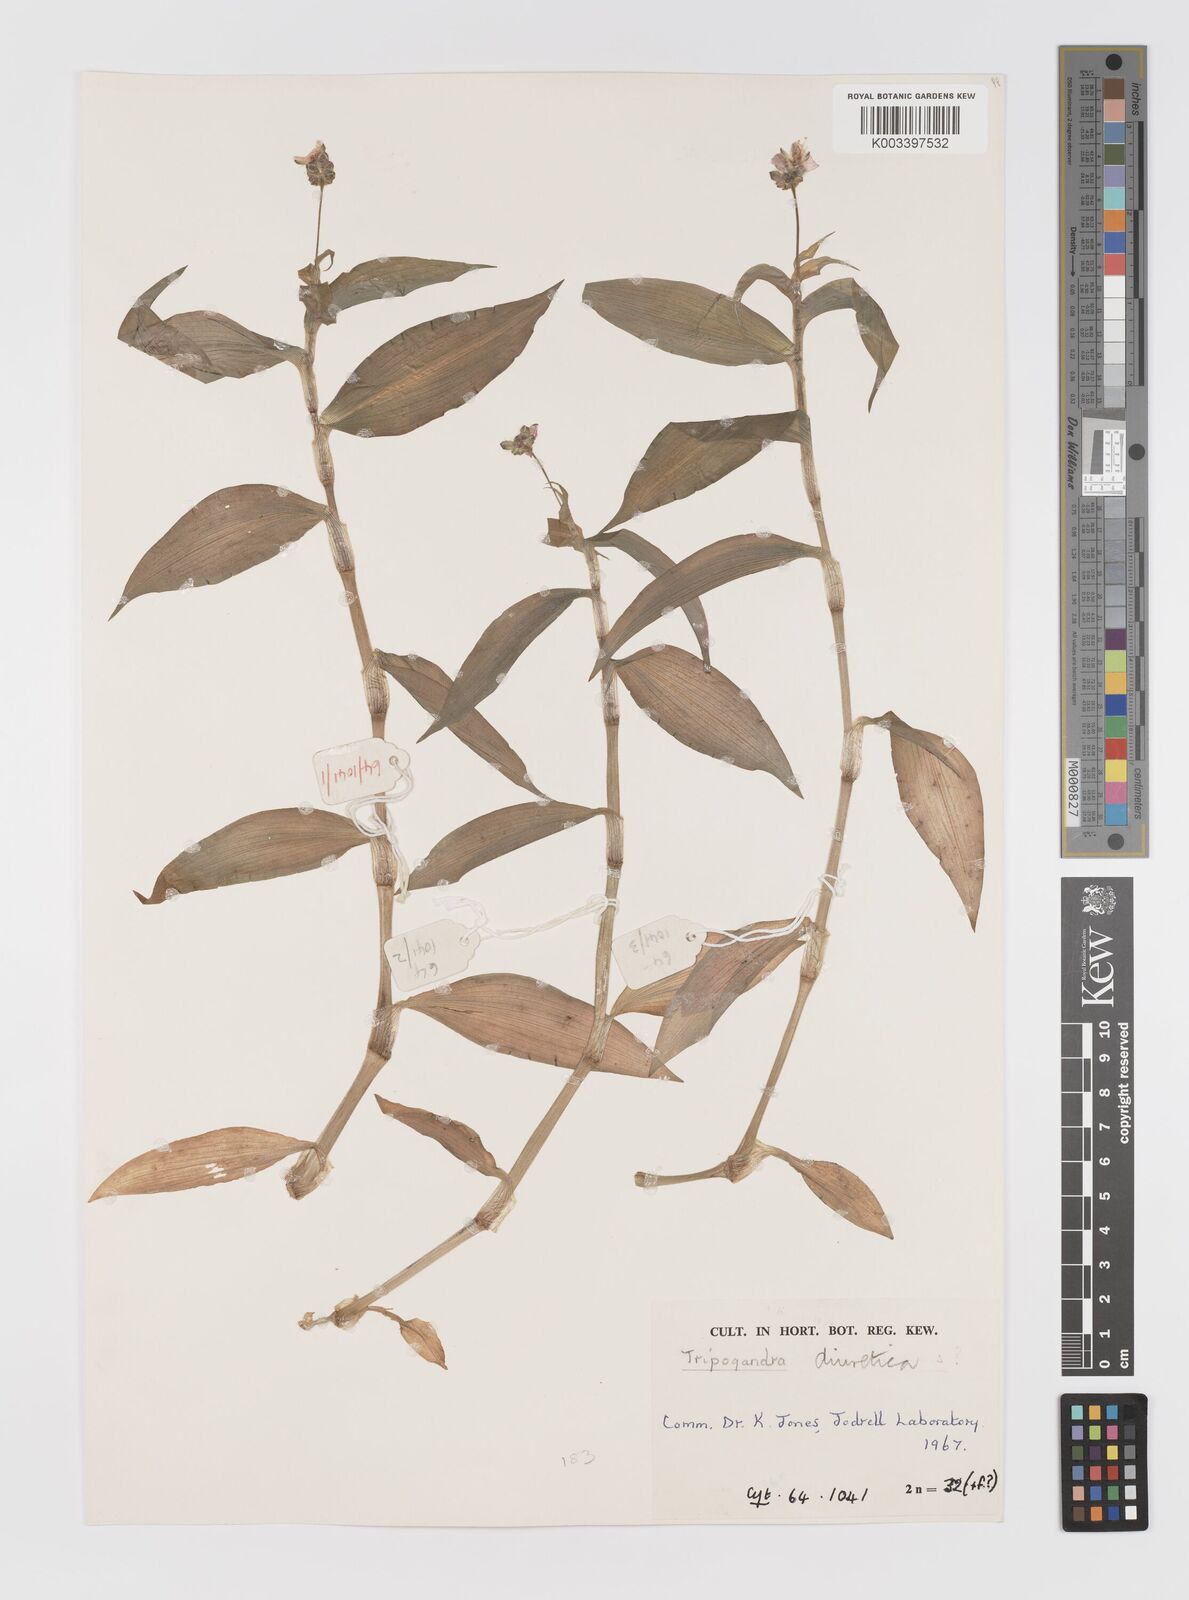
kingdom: Plantae
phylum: Tracheophyta
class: Liliopsida
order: Commelinales
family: Commelinaceae
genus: Callisia
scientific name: Callisia diuretica
